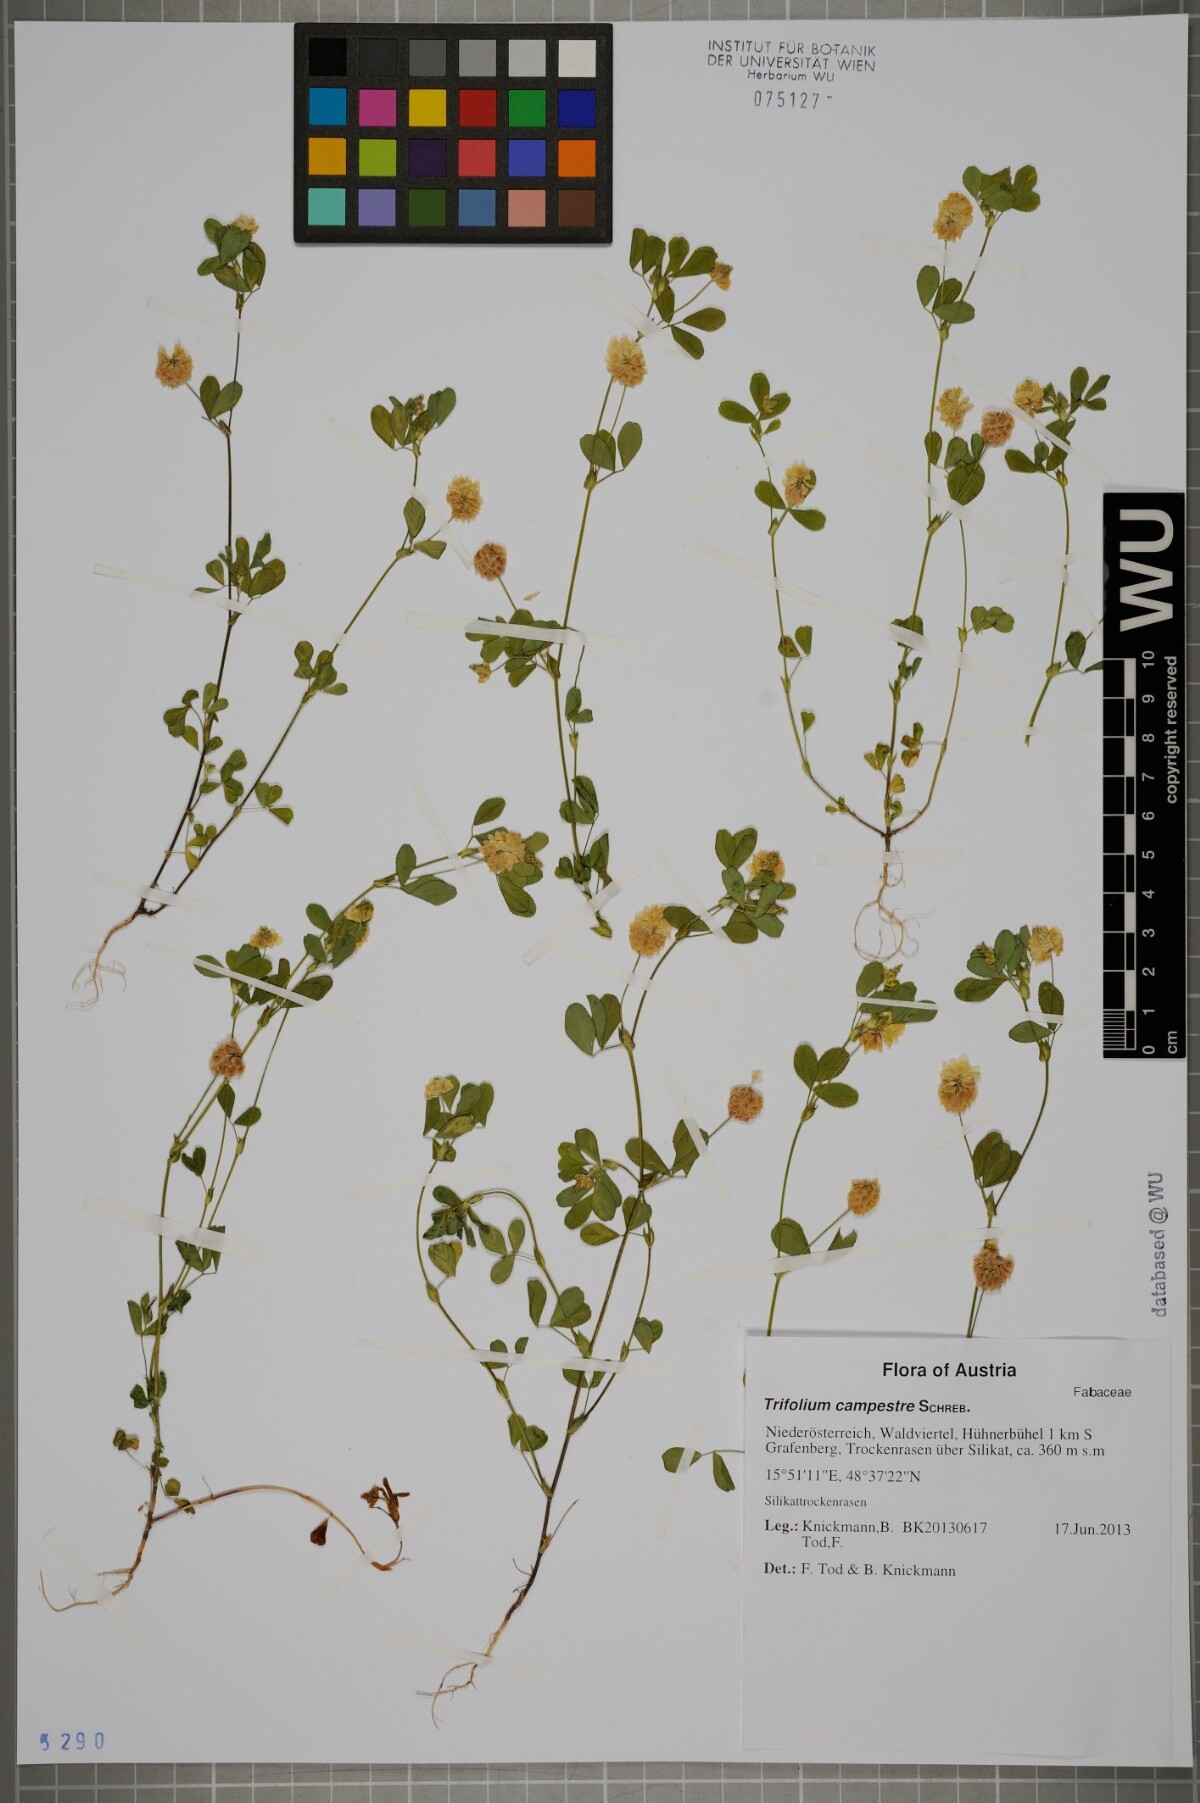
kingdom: Plantae
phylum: Tracheophyta
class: Magnoliopsida
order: Fabales
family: Fabaceae
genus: Trifolium
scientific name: Trifolium campestre
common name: Field clover
